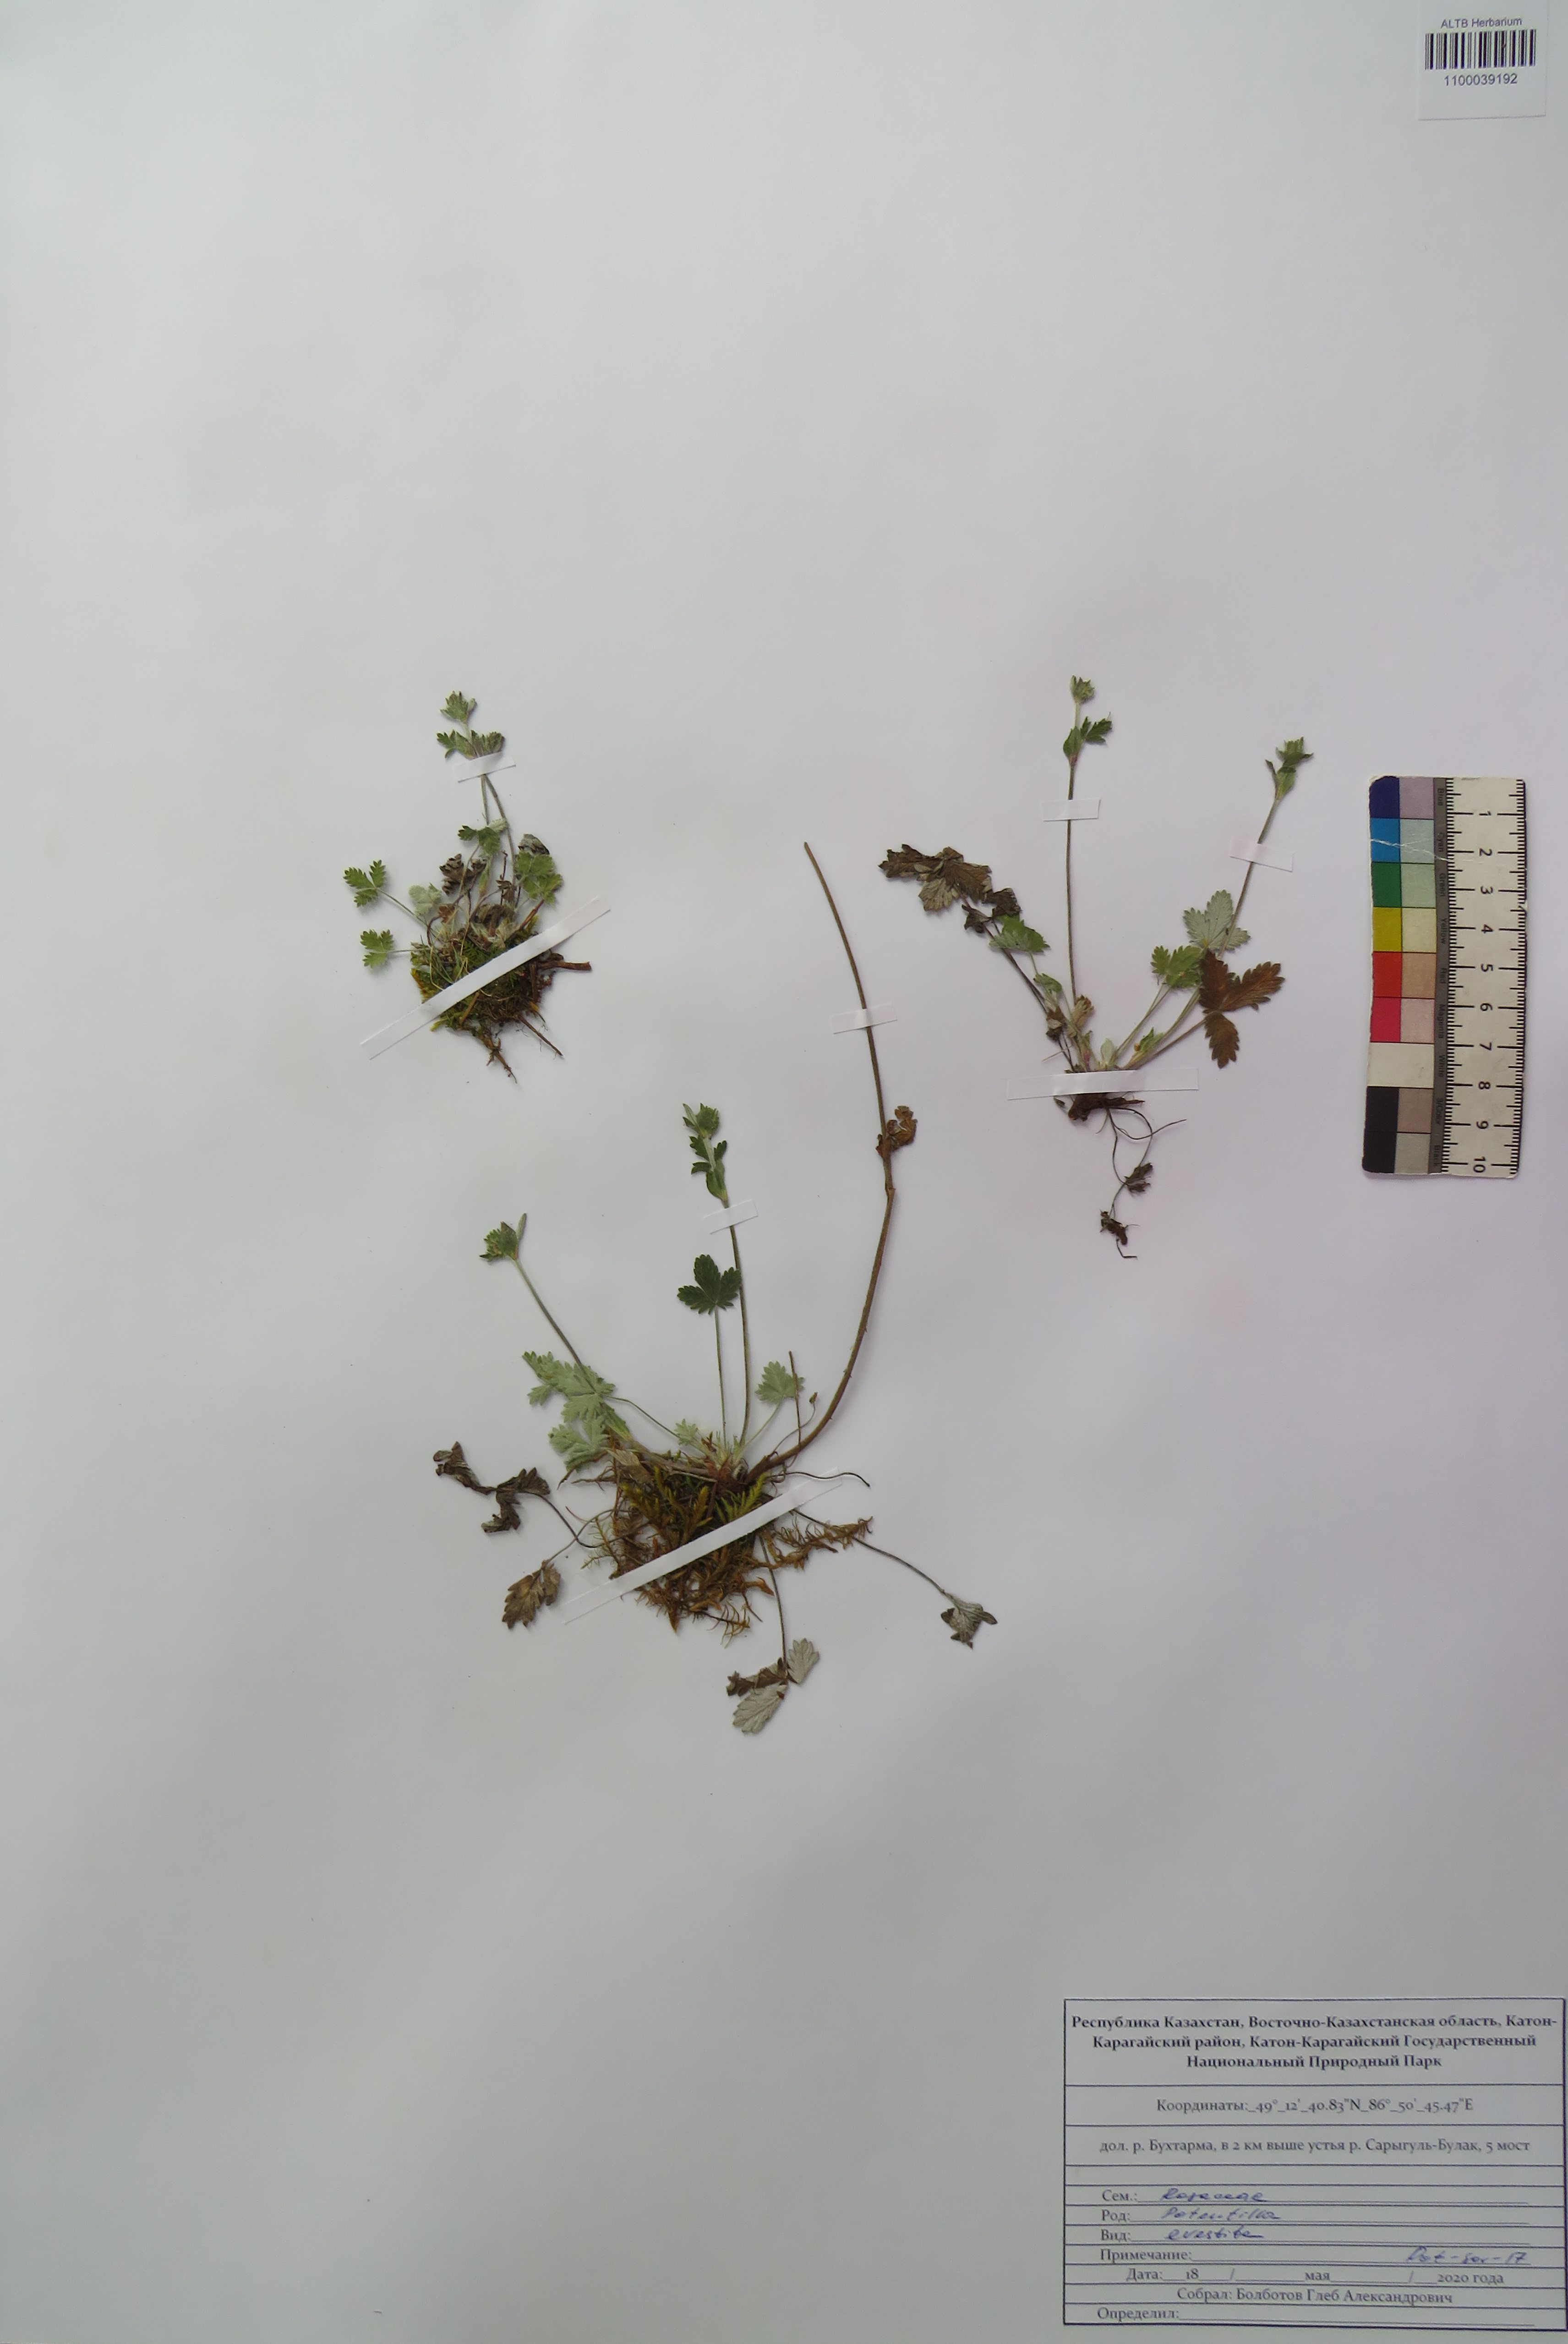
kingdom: Plantae
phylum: Tracheophyta
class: Magnoliopsida
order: Rosales
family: Rosaceae
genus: Potentilla
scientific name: Potentilla evestita
